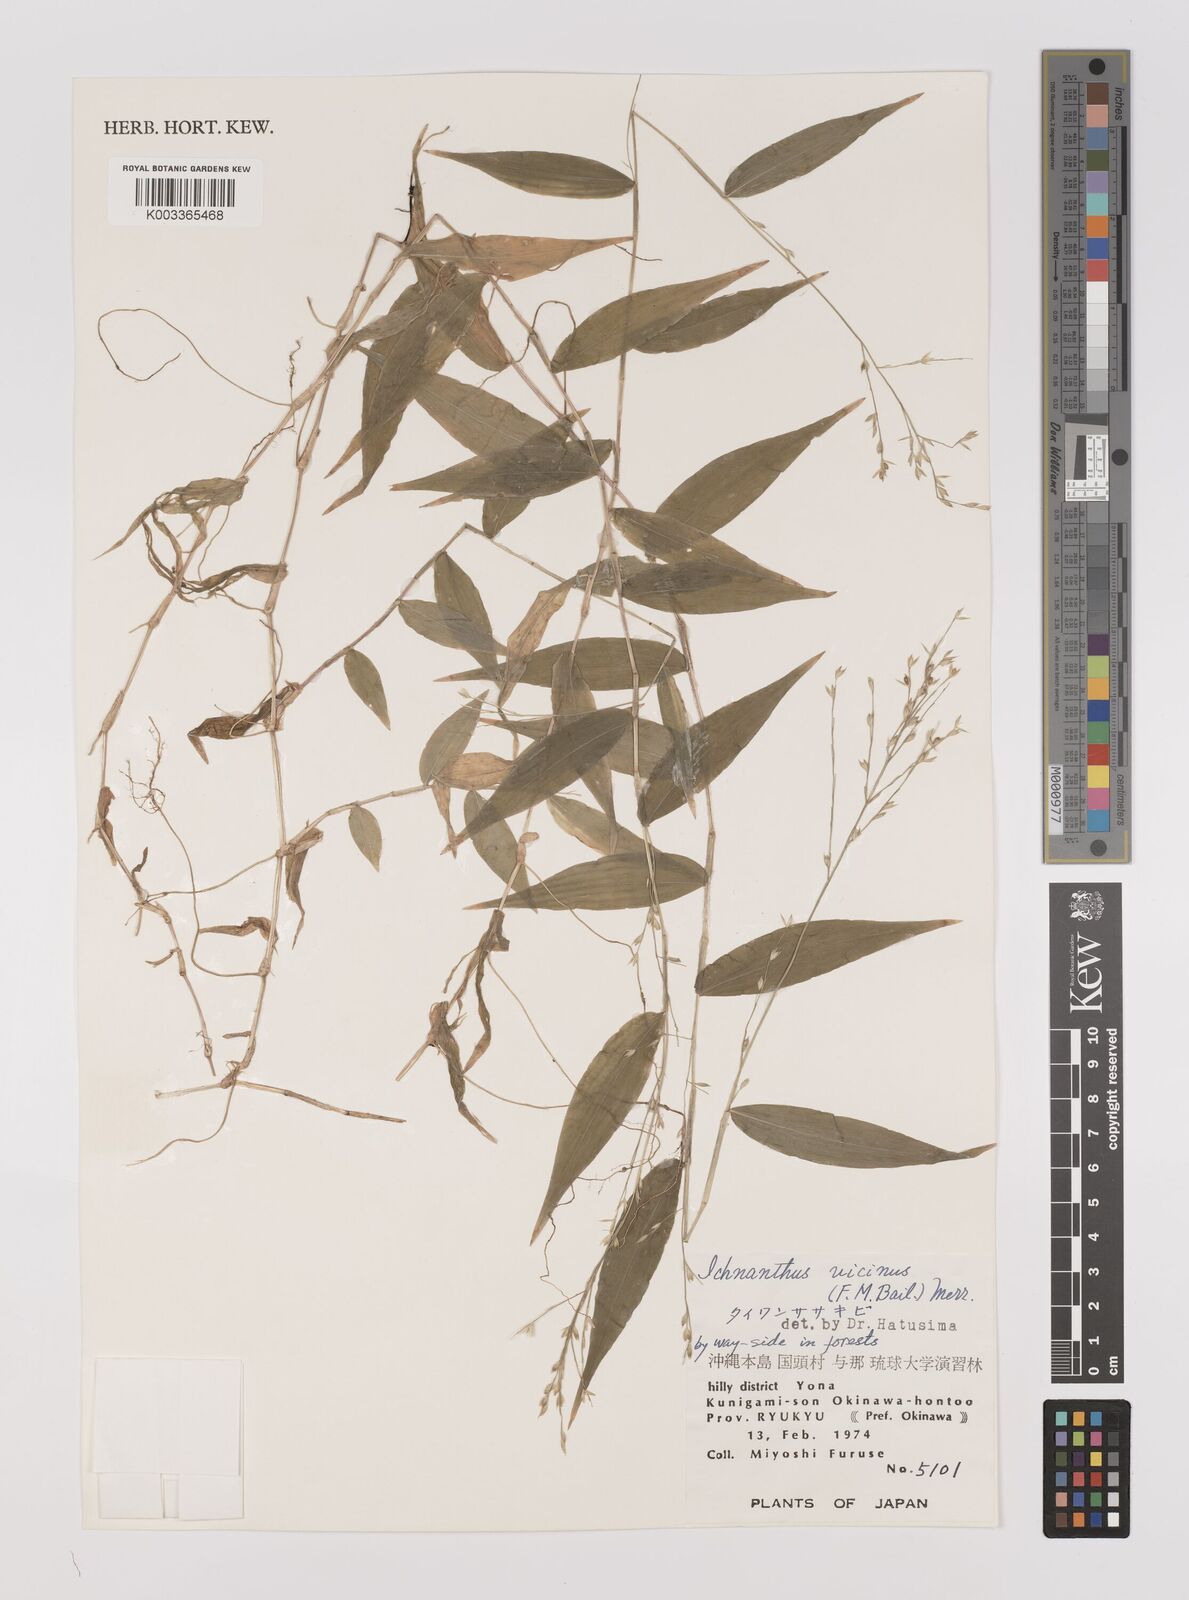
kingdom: Plantae
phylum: Tracheophyta
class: Liliopsida
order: Poales
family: Poaceae
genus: Ichnanthus
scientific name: Ichnanthus pallens
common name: Water grass
